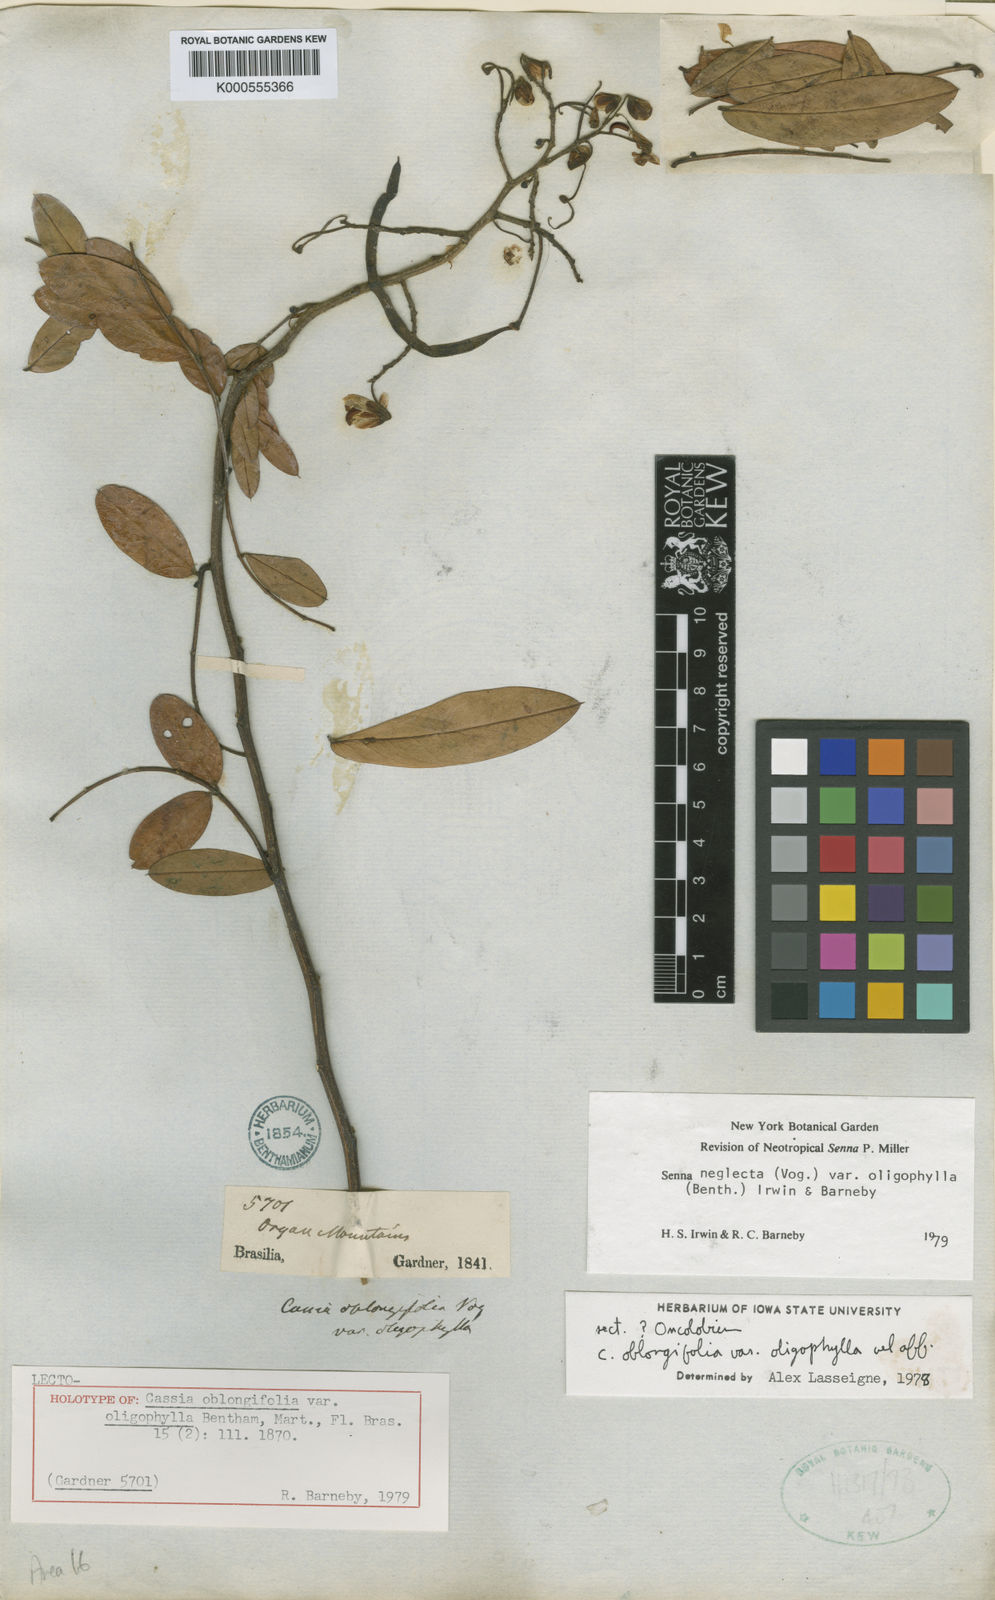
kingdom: Plantae
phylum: Tracheophyta
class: Magnoliopsida
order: Fabales
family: Fabaceae
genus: Senna
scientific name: Senna neglecta
